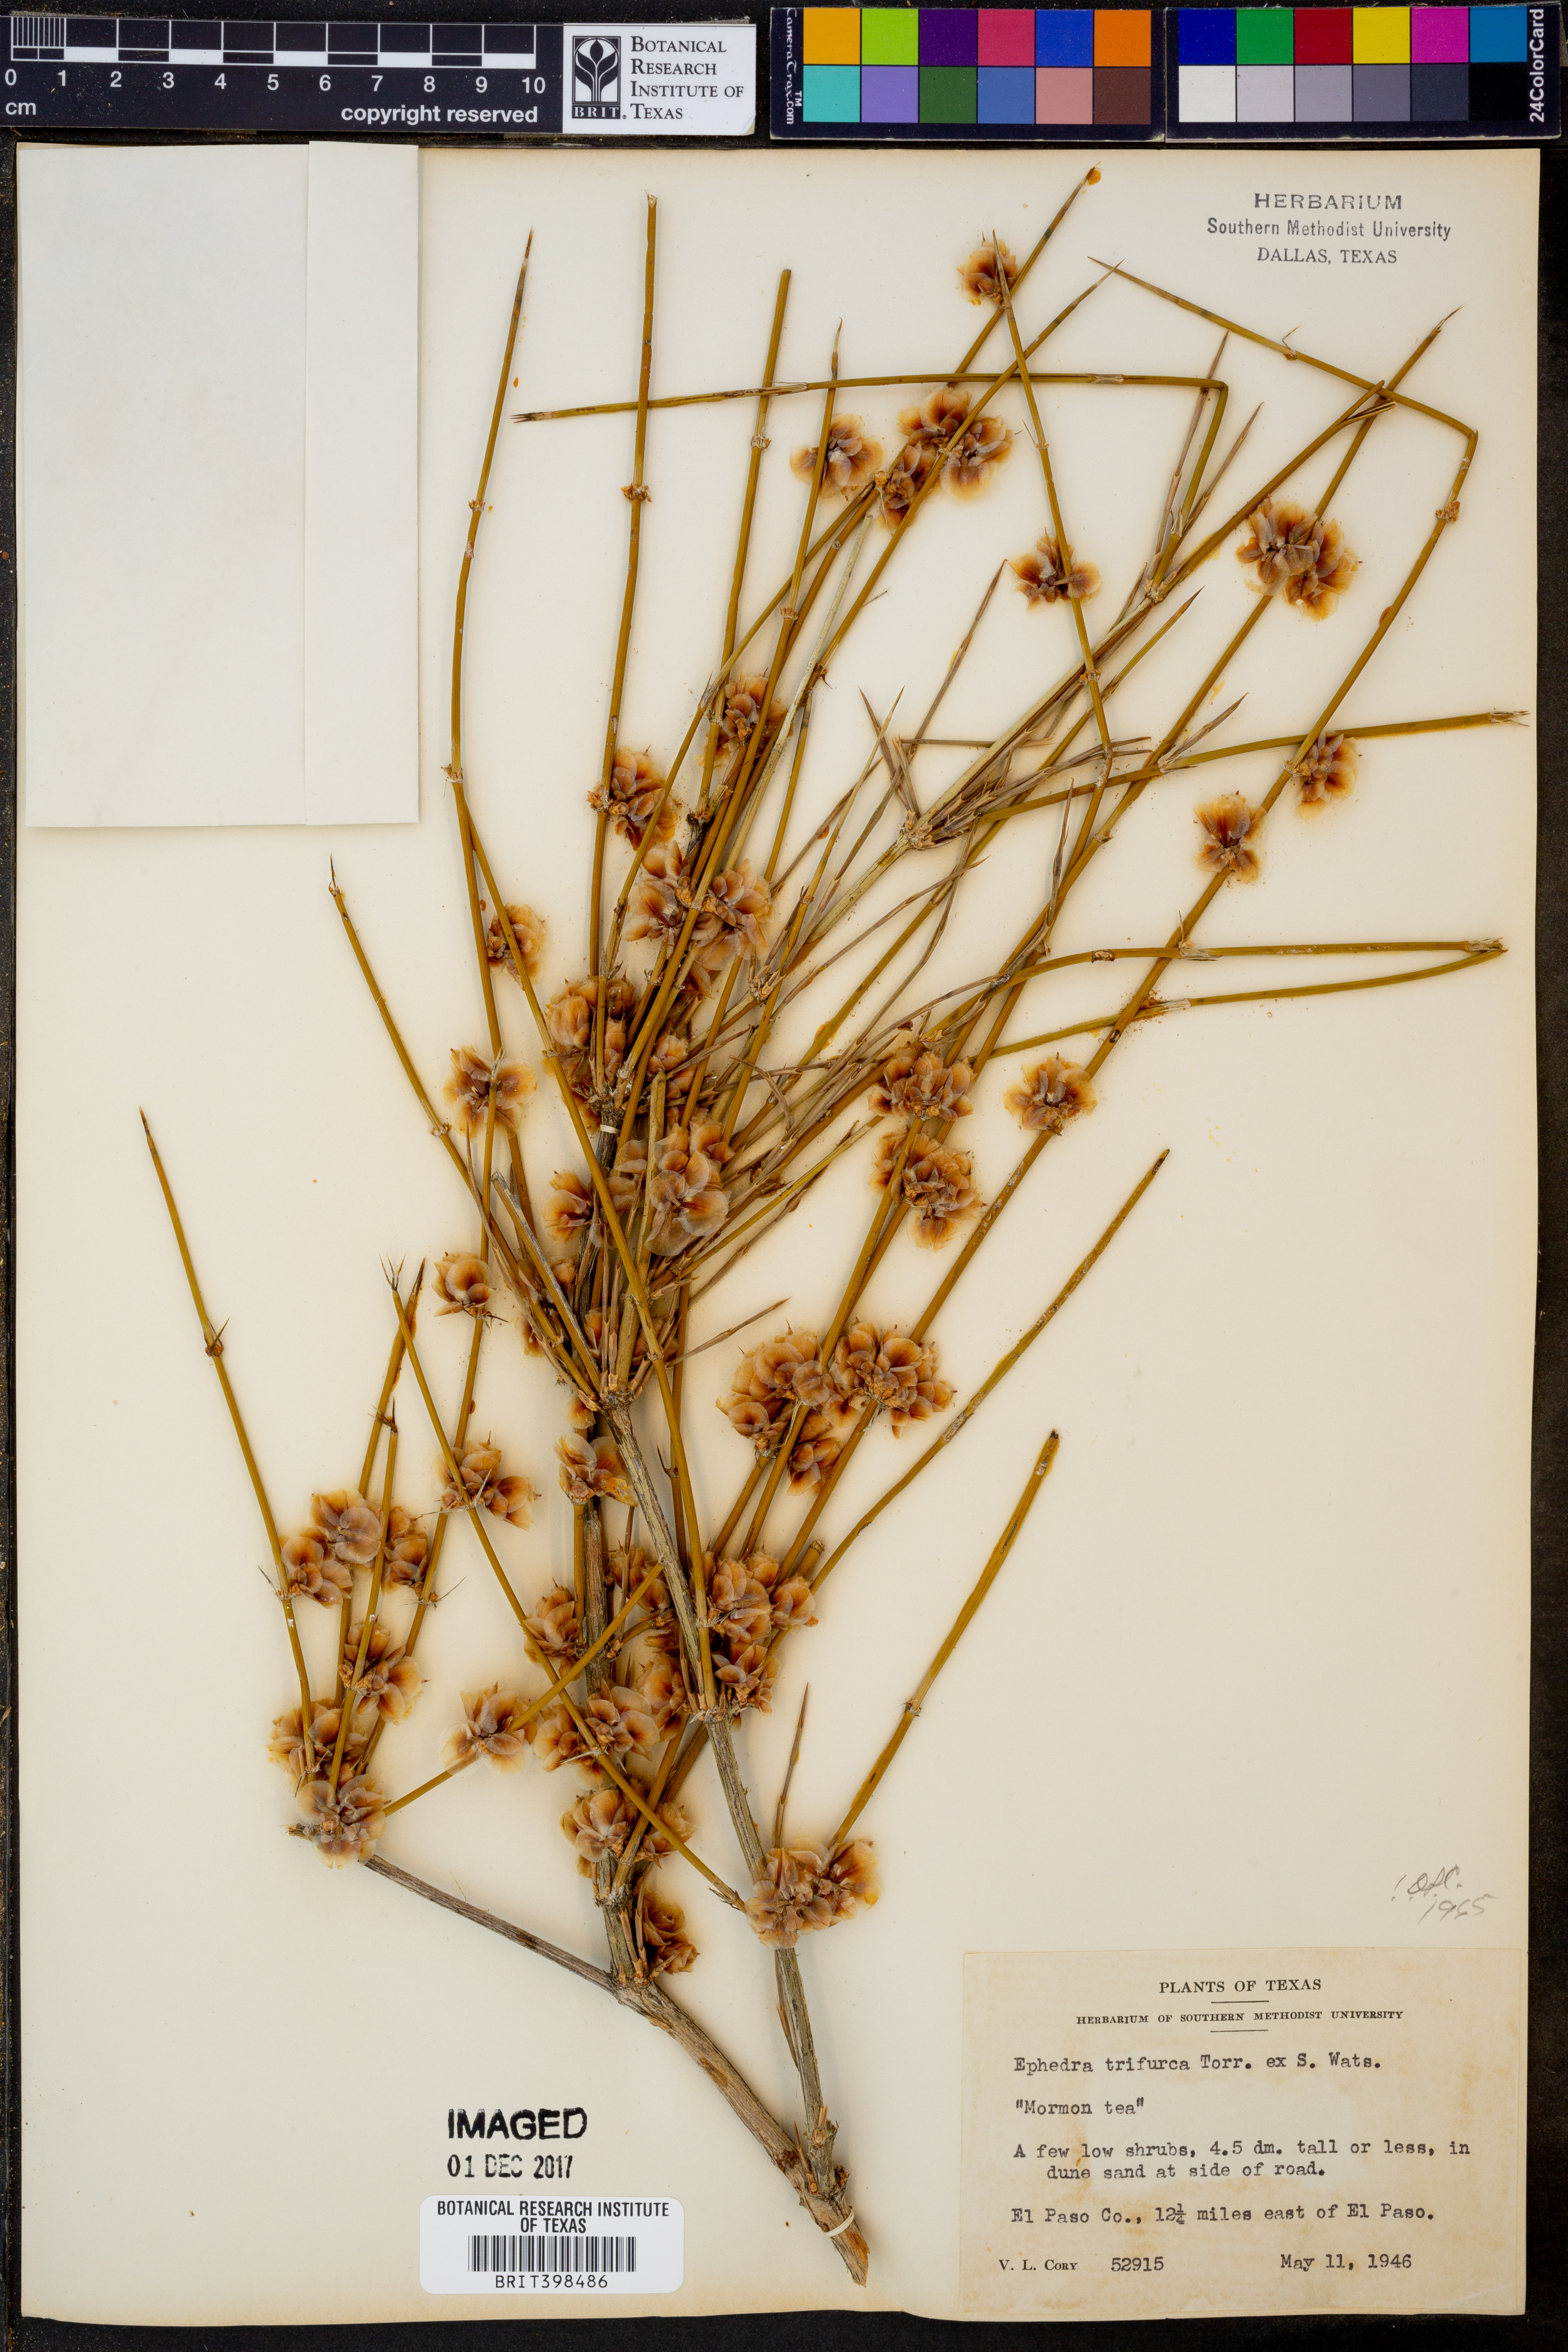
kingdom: Plantae
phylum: Tracheophyta
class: Gnetopsida
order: Ephedrales
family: Ephedraceae
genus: Ephedra
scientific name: Ephedra trifurca
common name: Mexican-tea
